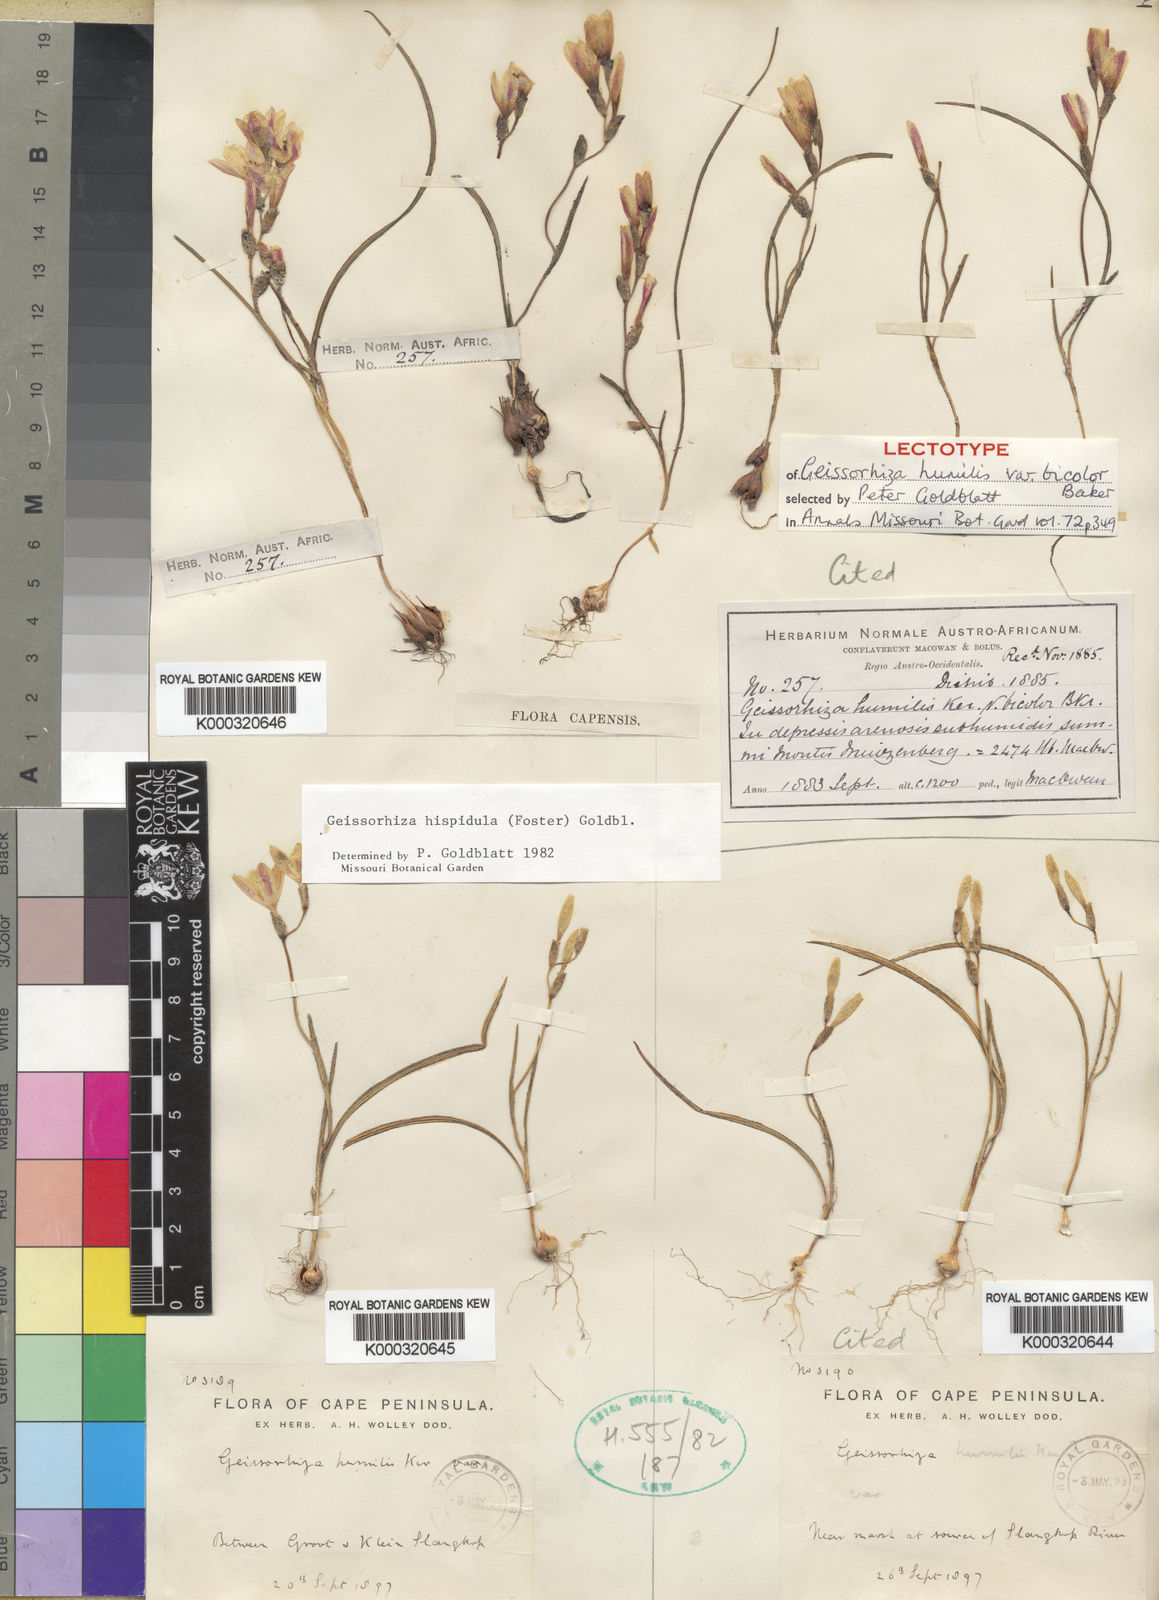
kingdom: Plantae
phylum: Tracheophyta
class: Liliopsida
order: Asparagales
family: Iridaceae
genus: Geissorhiza
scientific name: Geissorhiza hispidula
